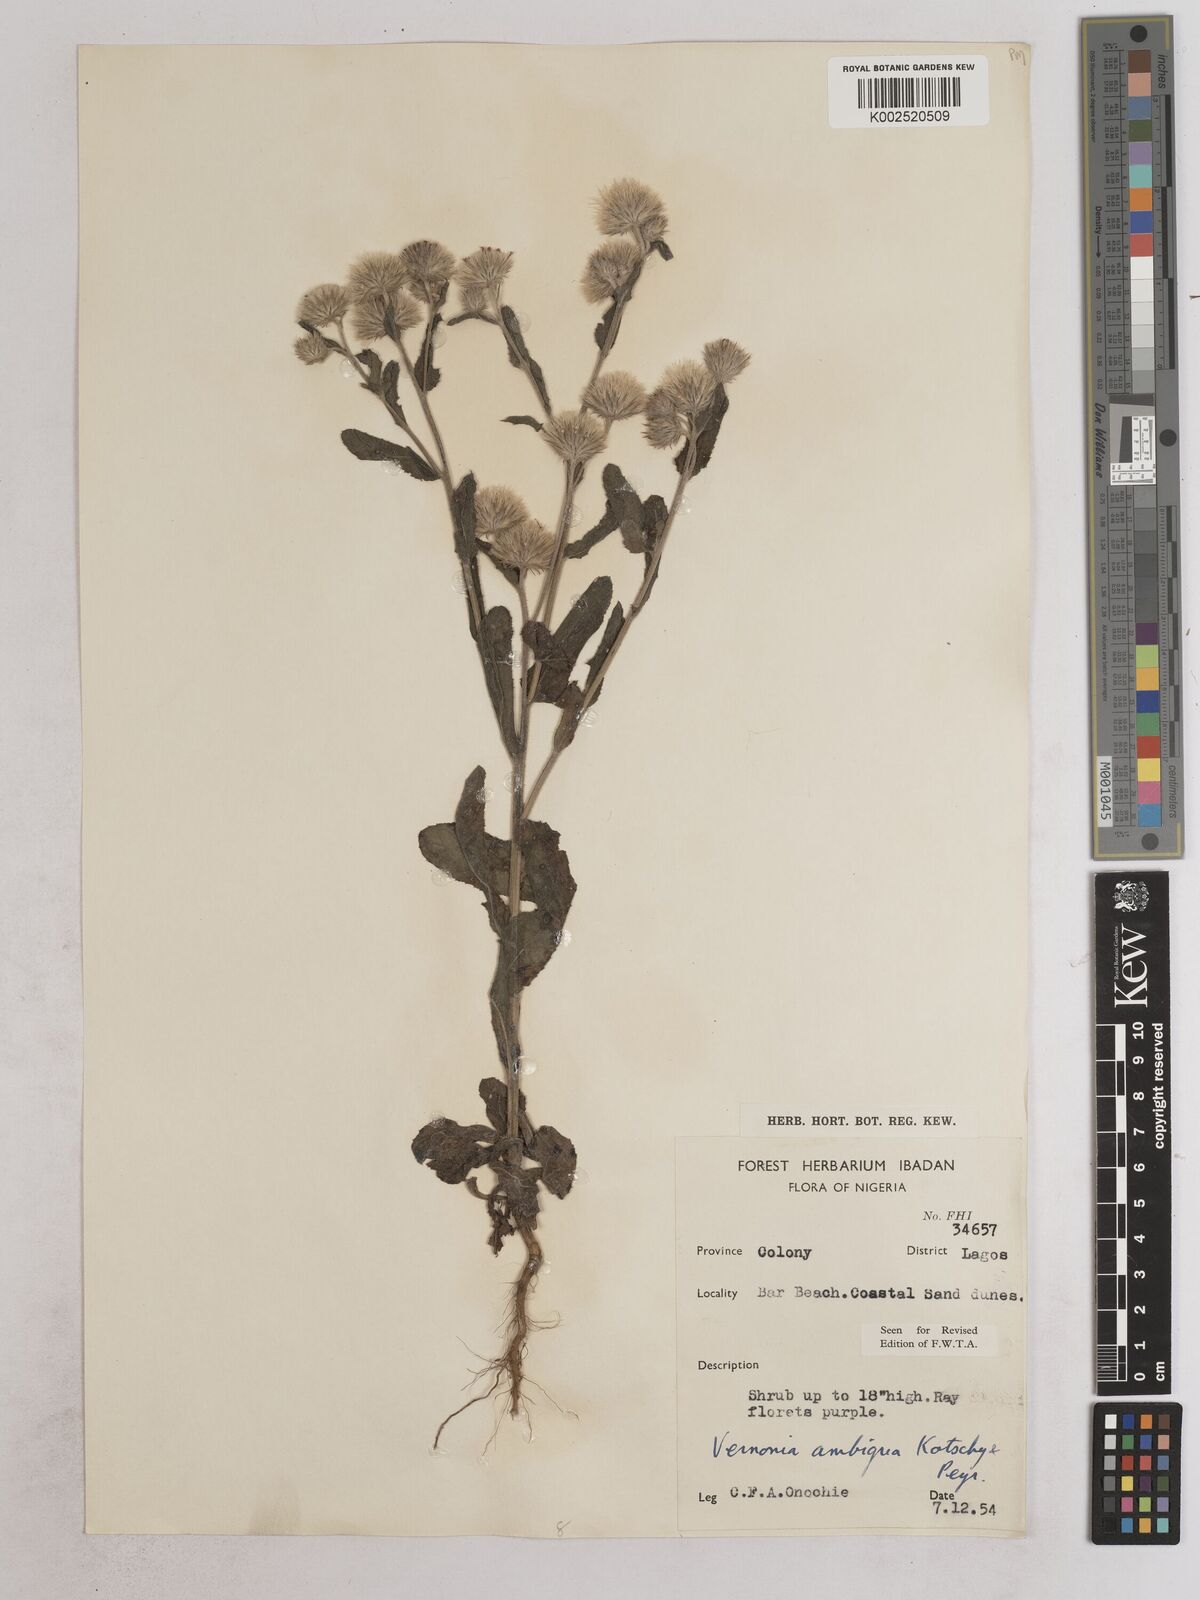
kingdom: Plantae
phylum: Tracheophyta
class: Magnoliopsida
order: Asterales
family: Asteraceae
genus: Vernoniastrum
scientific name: Vernoniastrum ambiguum
